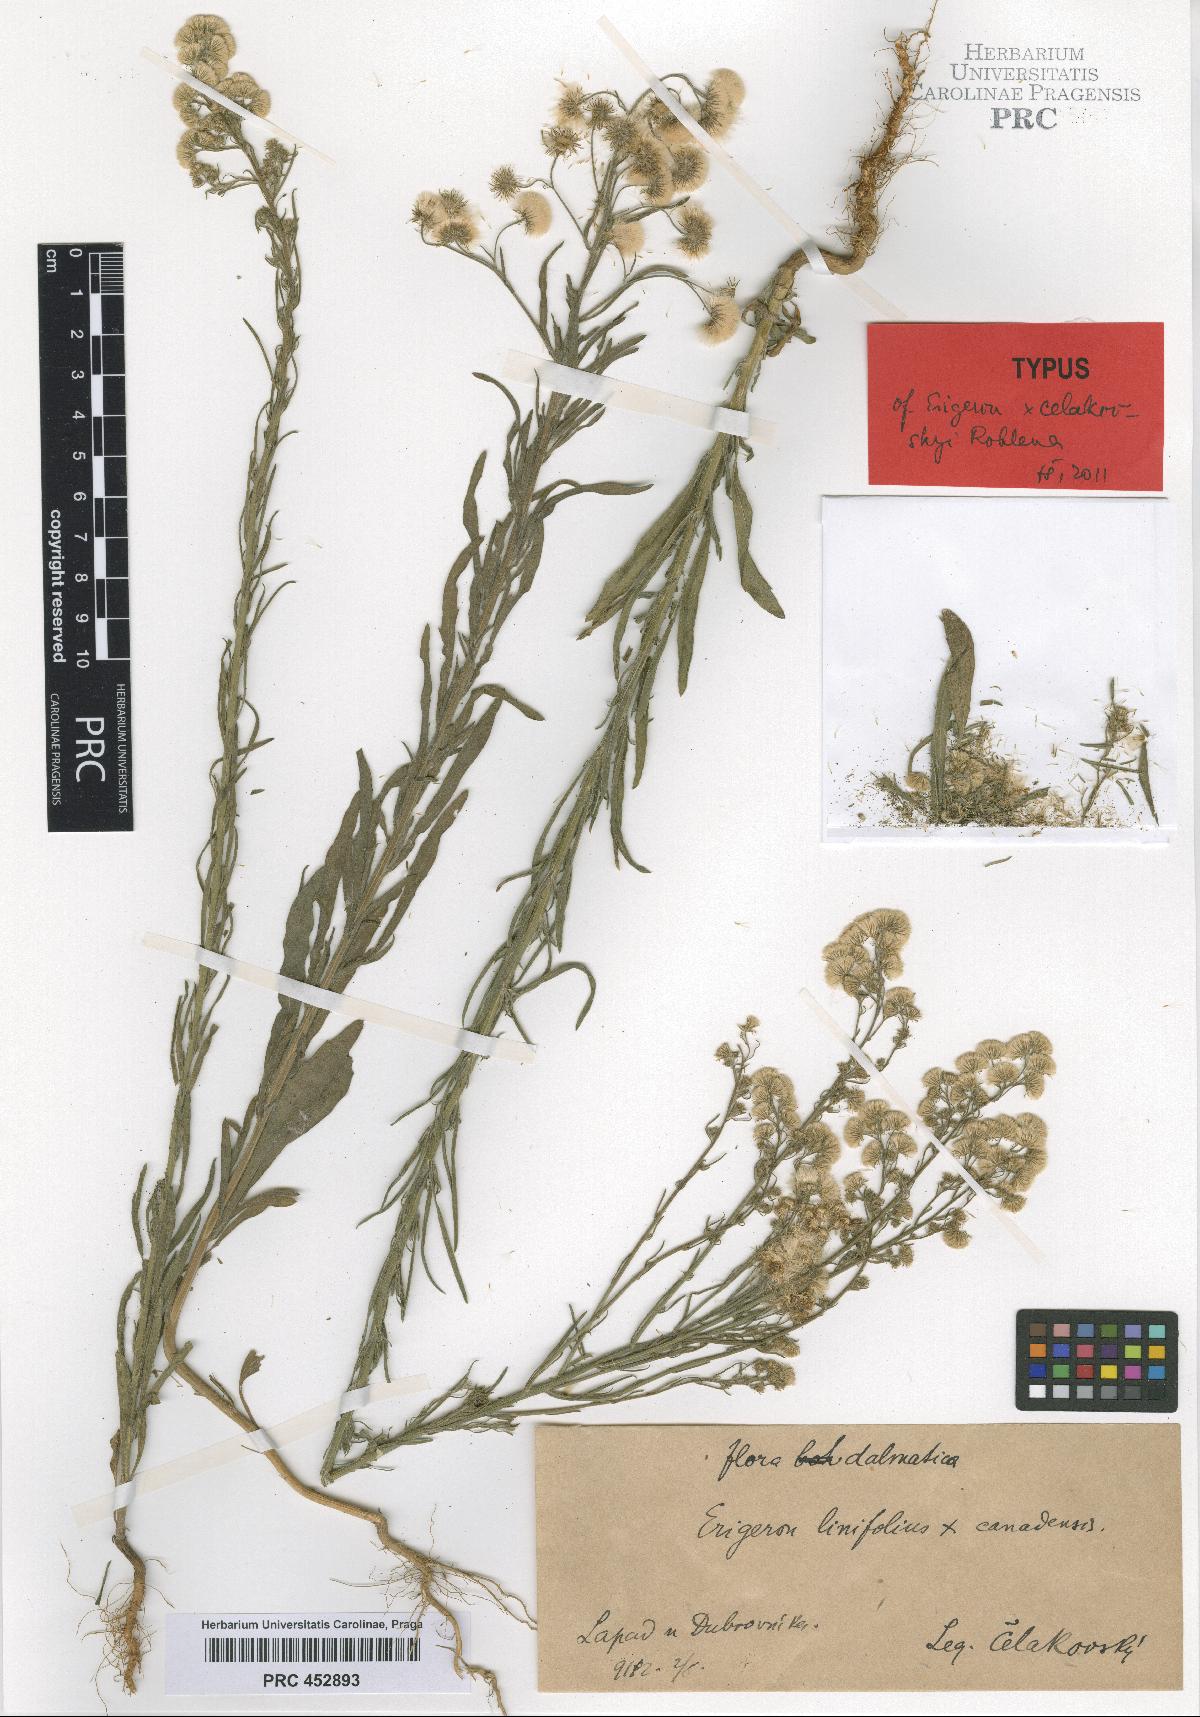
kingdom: Plantae
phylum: Tracheophyta
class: Magnoliopsida
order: Asterales
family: Asteraceae
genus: Erigeron
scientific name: Erigeron celakovskyi
